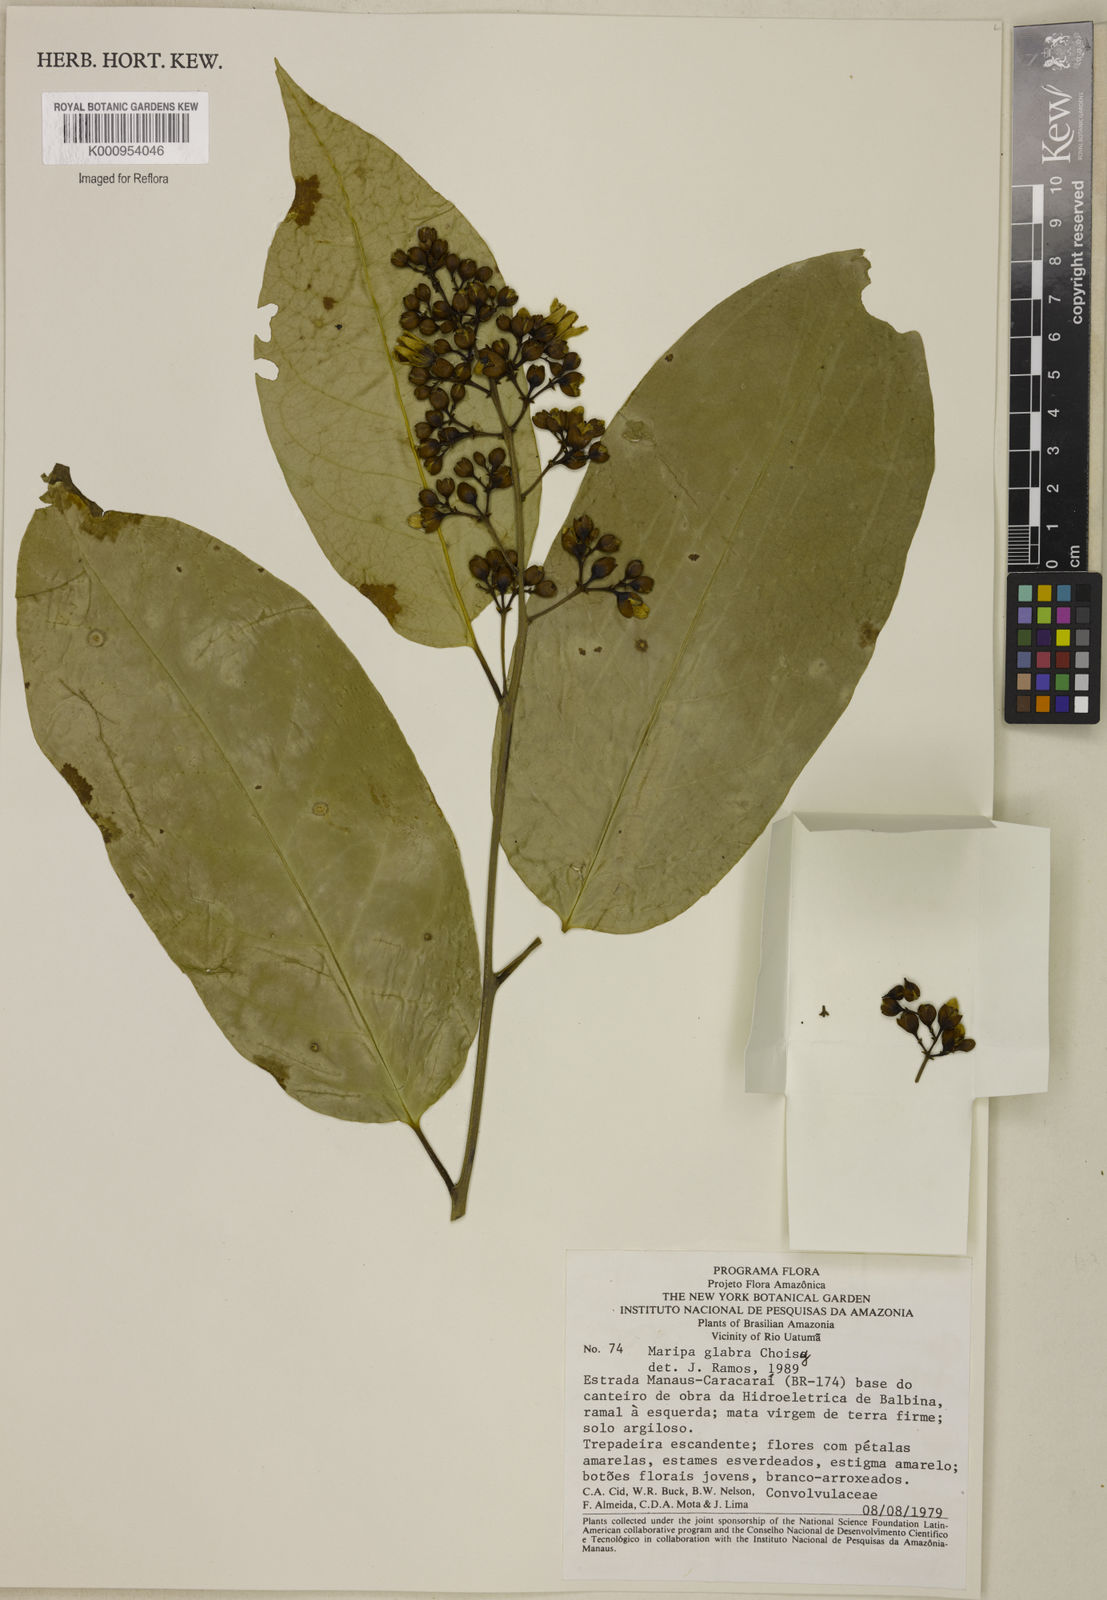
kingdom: Plantae
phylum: Tracheophyta
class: Magnoliopsida
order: Solanales
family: Convolvulaceae
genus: Maripa
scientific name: Maripa glabra
